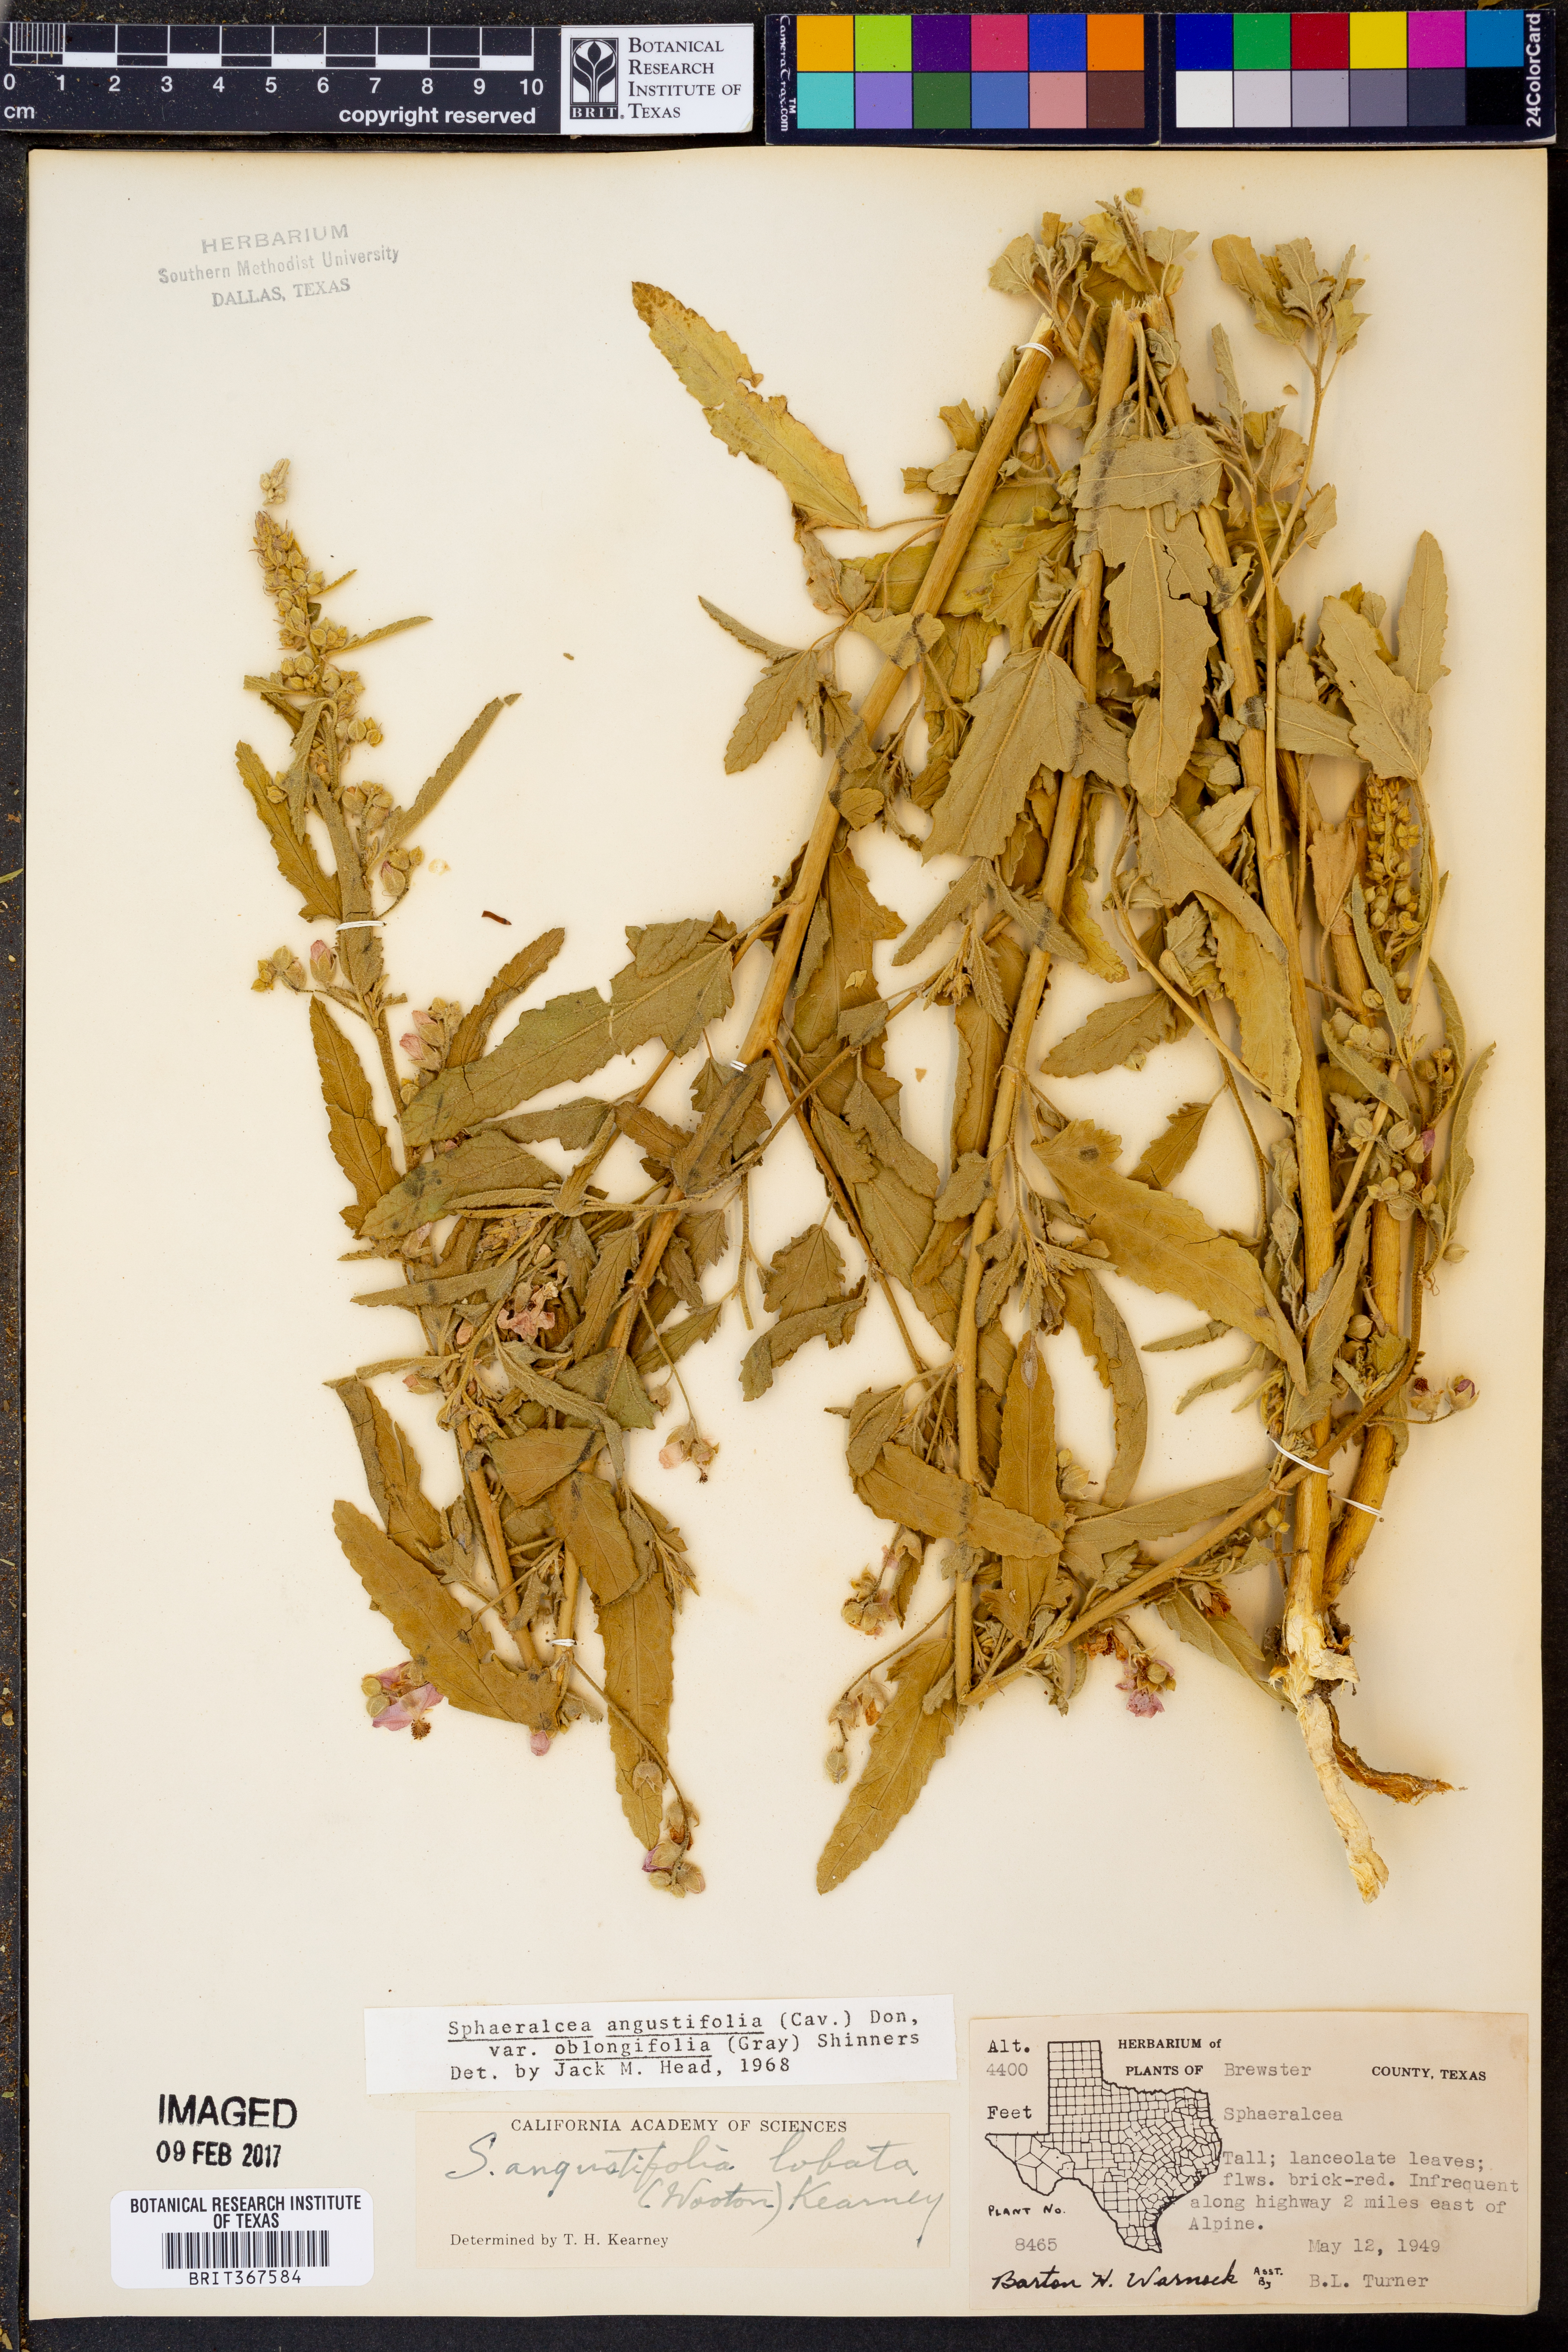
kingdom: Plantae
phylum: Tracheophyta
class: Magnoliopsida
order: Malvales
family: Malvaceae
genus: Sphaeralcea
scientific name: Sphaeralcea angustifolia
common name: Copper globe-mallow
